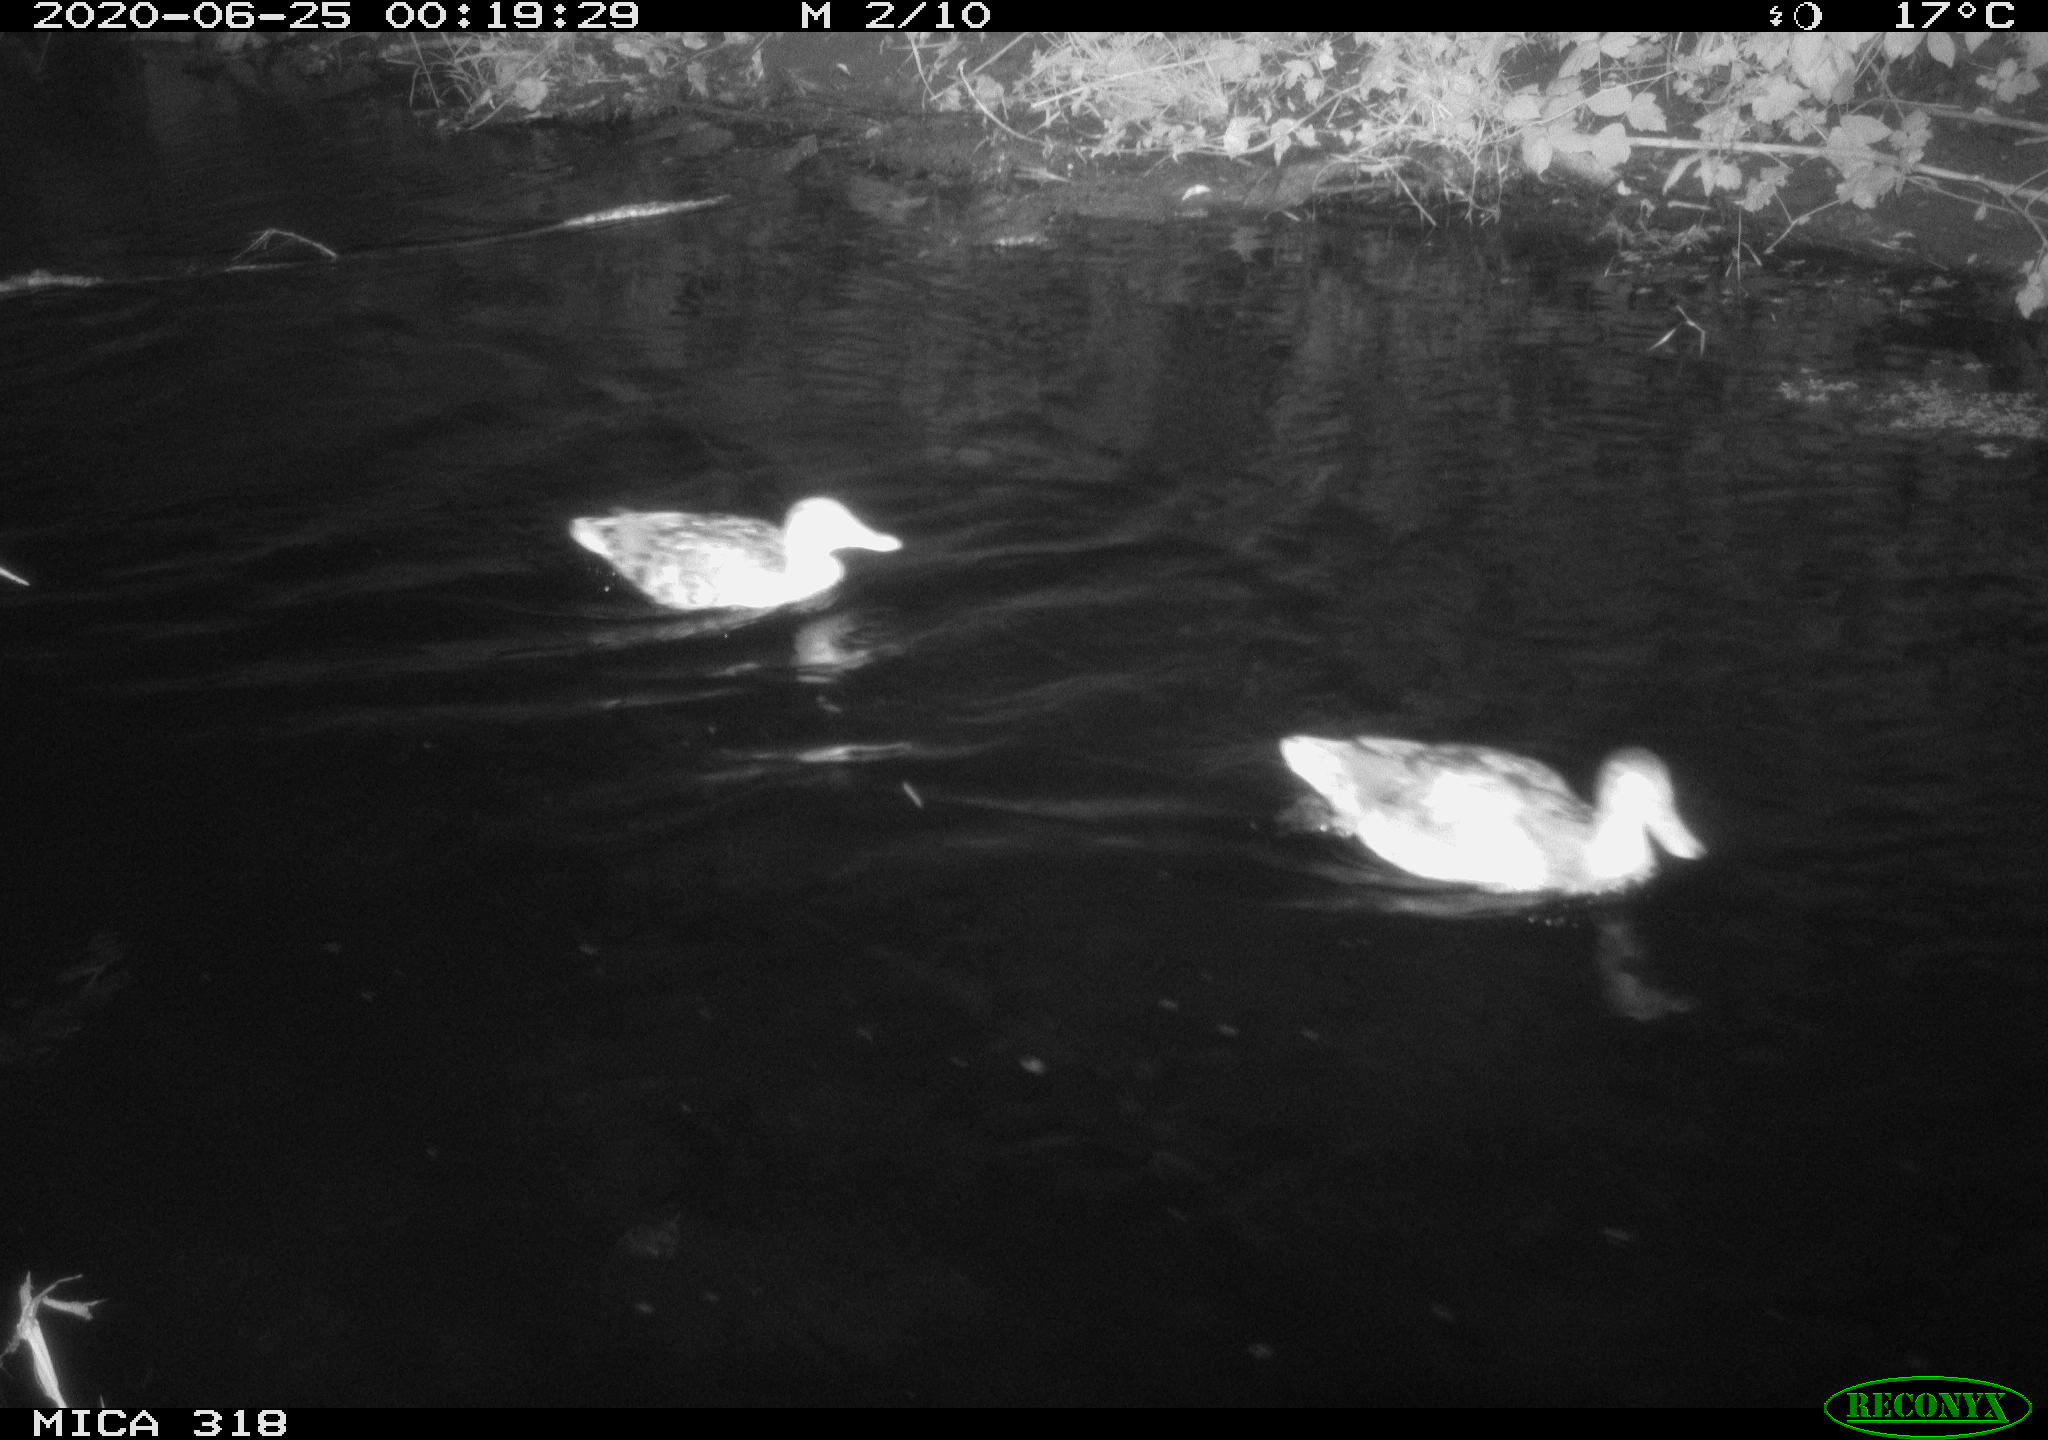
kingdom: Animalia
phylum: Chordata
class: Aves
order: Anseriformes
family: Anatidae
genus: Anas
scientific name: Anas platyrhynchos
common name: Mallard
